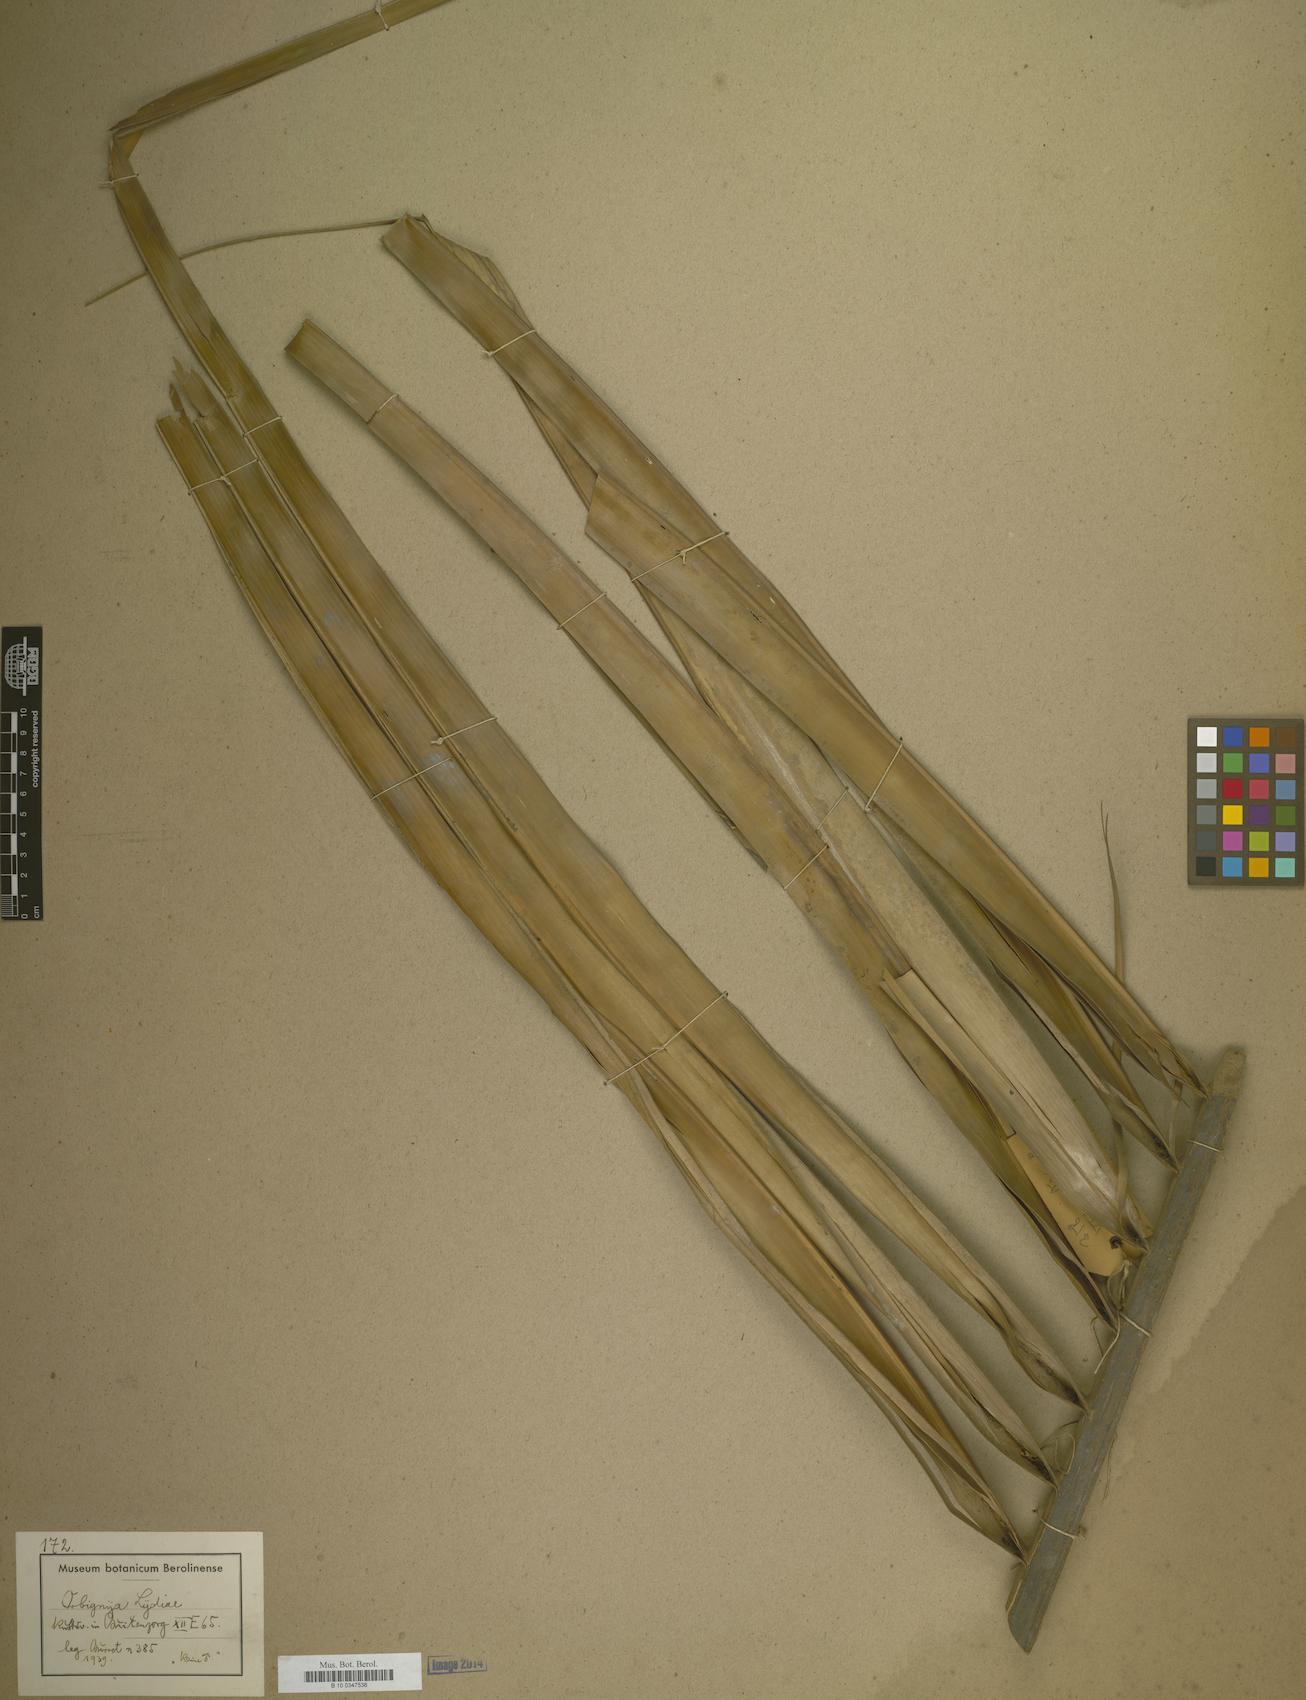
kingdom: Plantae
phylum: Tracheophyta
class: Magnoliopsida
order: Sapindales
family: Sapindaceae
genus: Orbignya
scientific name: Orbignya
